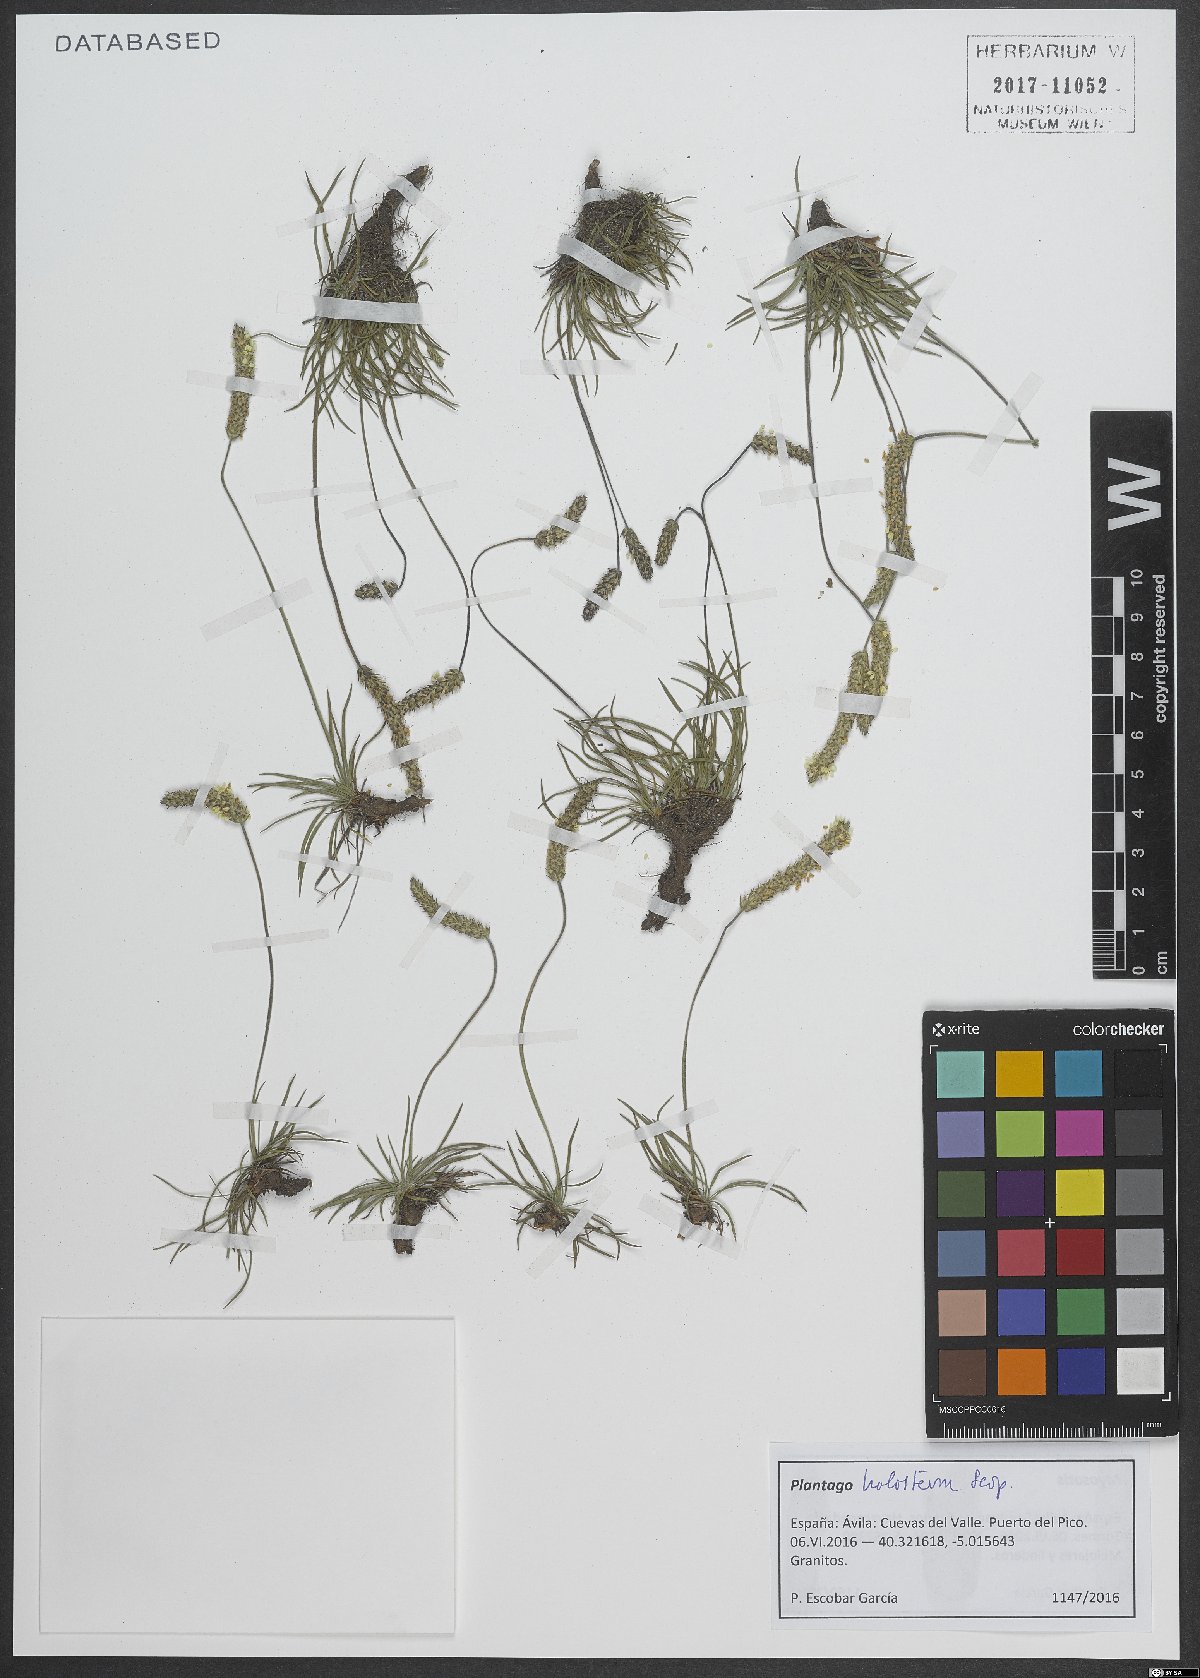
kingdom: Plantae
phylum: Tracheophyta
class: Magnoliopsida
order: Lamiales
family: Plantaginaceae
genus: Plantago
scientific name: Plantago subulata
